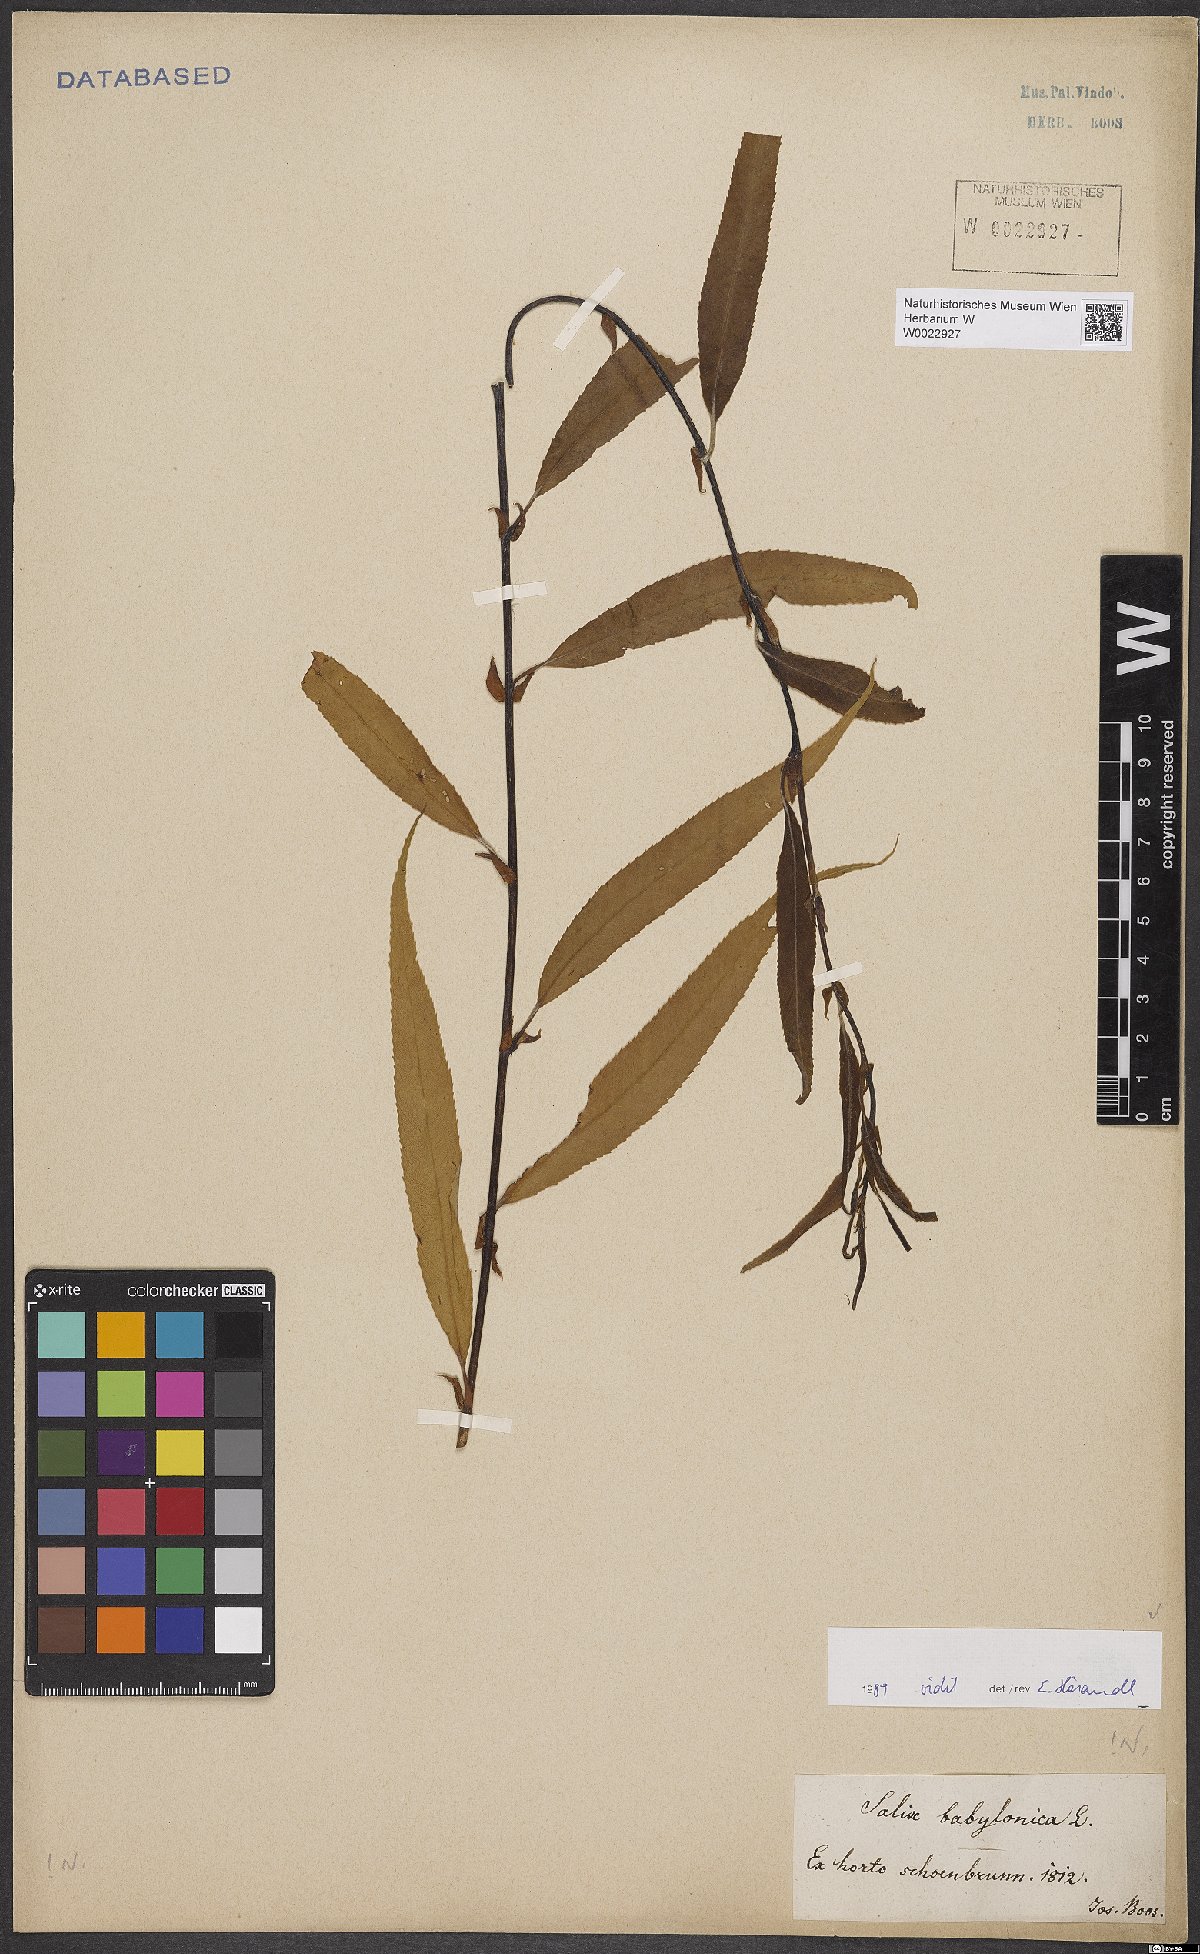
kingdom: Plantae
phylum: Tracheophyta
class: Magnoliopsida
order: Malpighiales
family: Salicaceae
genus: Salix
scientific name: Salix babylonica
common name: Weeping willow
